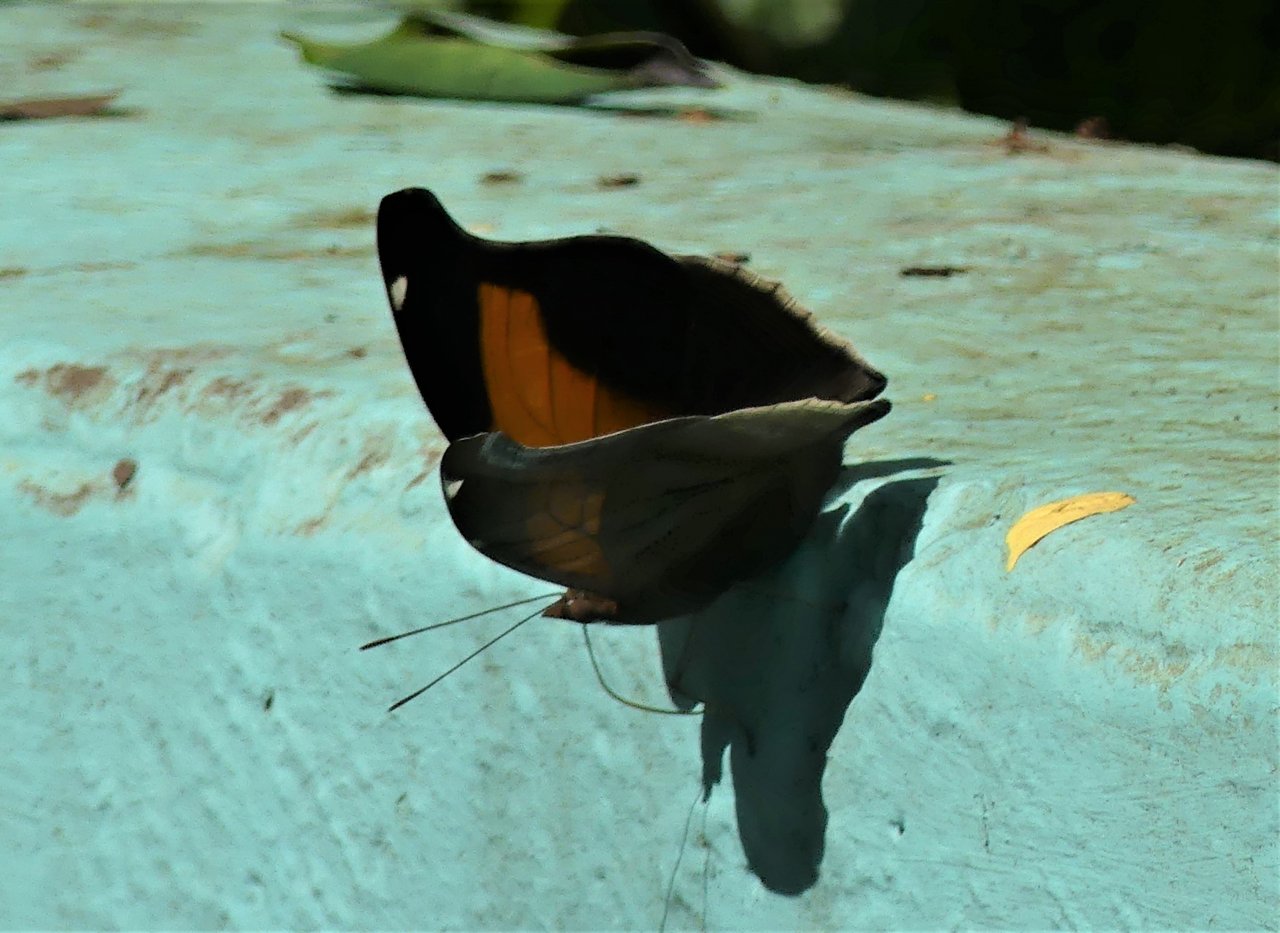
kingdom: Animalia
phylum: Arthropoda
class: Insecta
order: Lepidoptera
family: Nymphalidae
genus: Historis
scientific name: Historis odius
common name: Orion Cecropian
